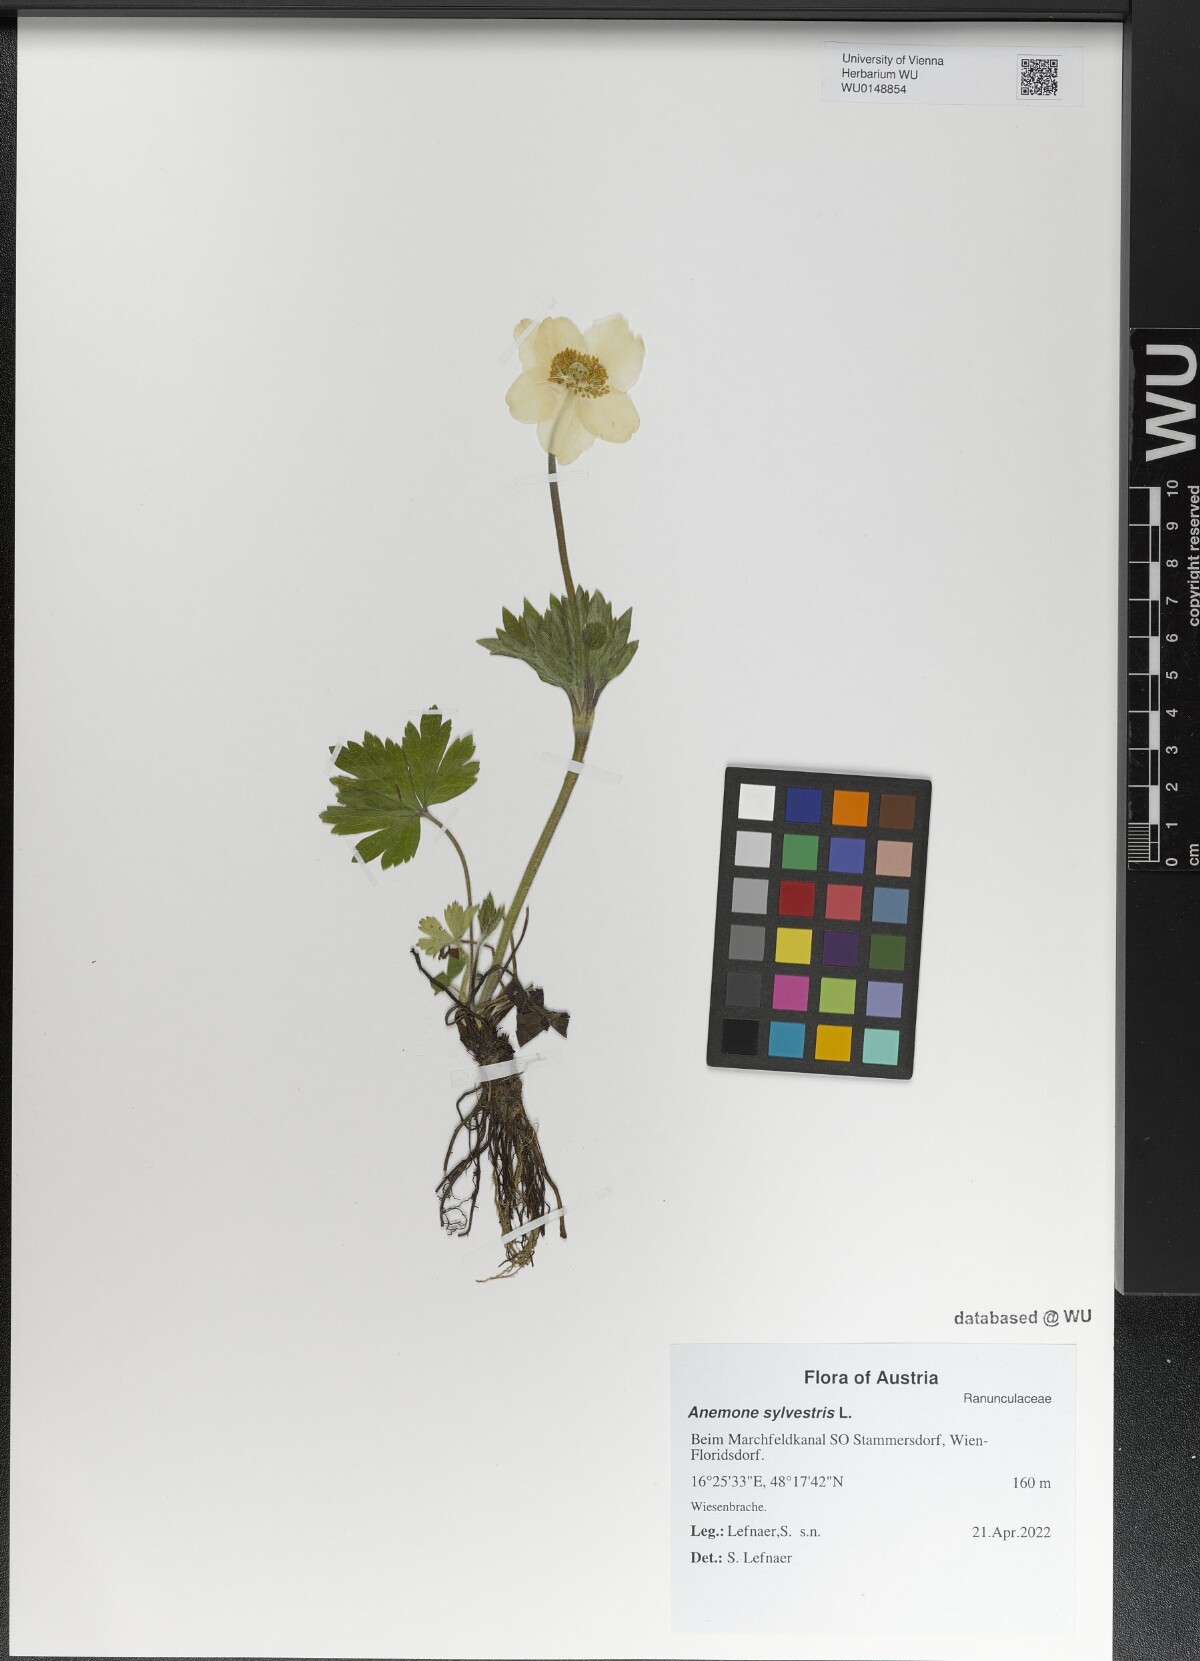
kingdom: Plantae
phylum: Tracheophyta
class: Magnoliopsida
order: Ranunculales
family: Ranunculaceae
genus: Anemone
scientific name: Anemone sylvestris
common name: Snowdrop anemone
